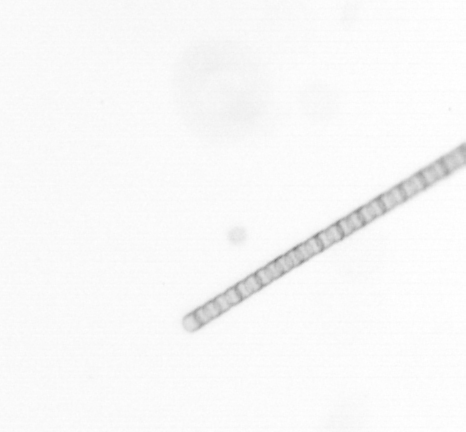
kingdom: Chromista
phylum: Ochrophyta
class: Bacillariophyceae
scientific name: Bacillariophyceae
